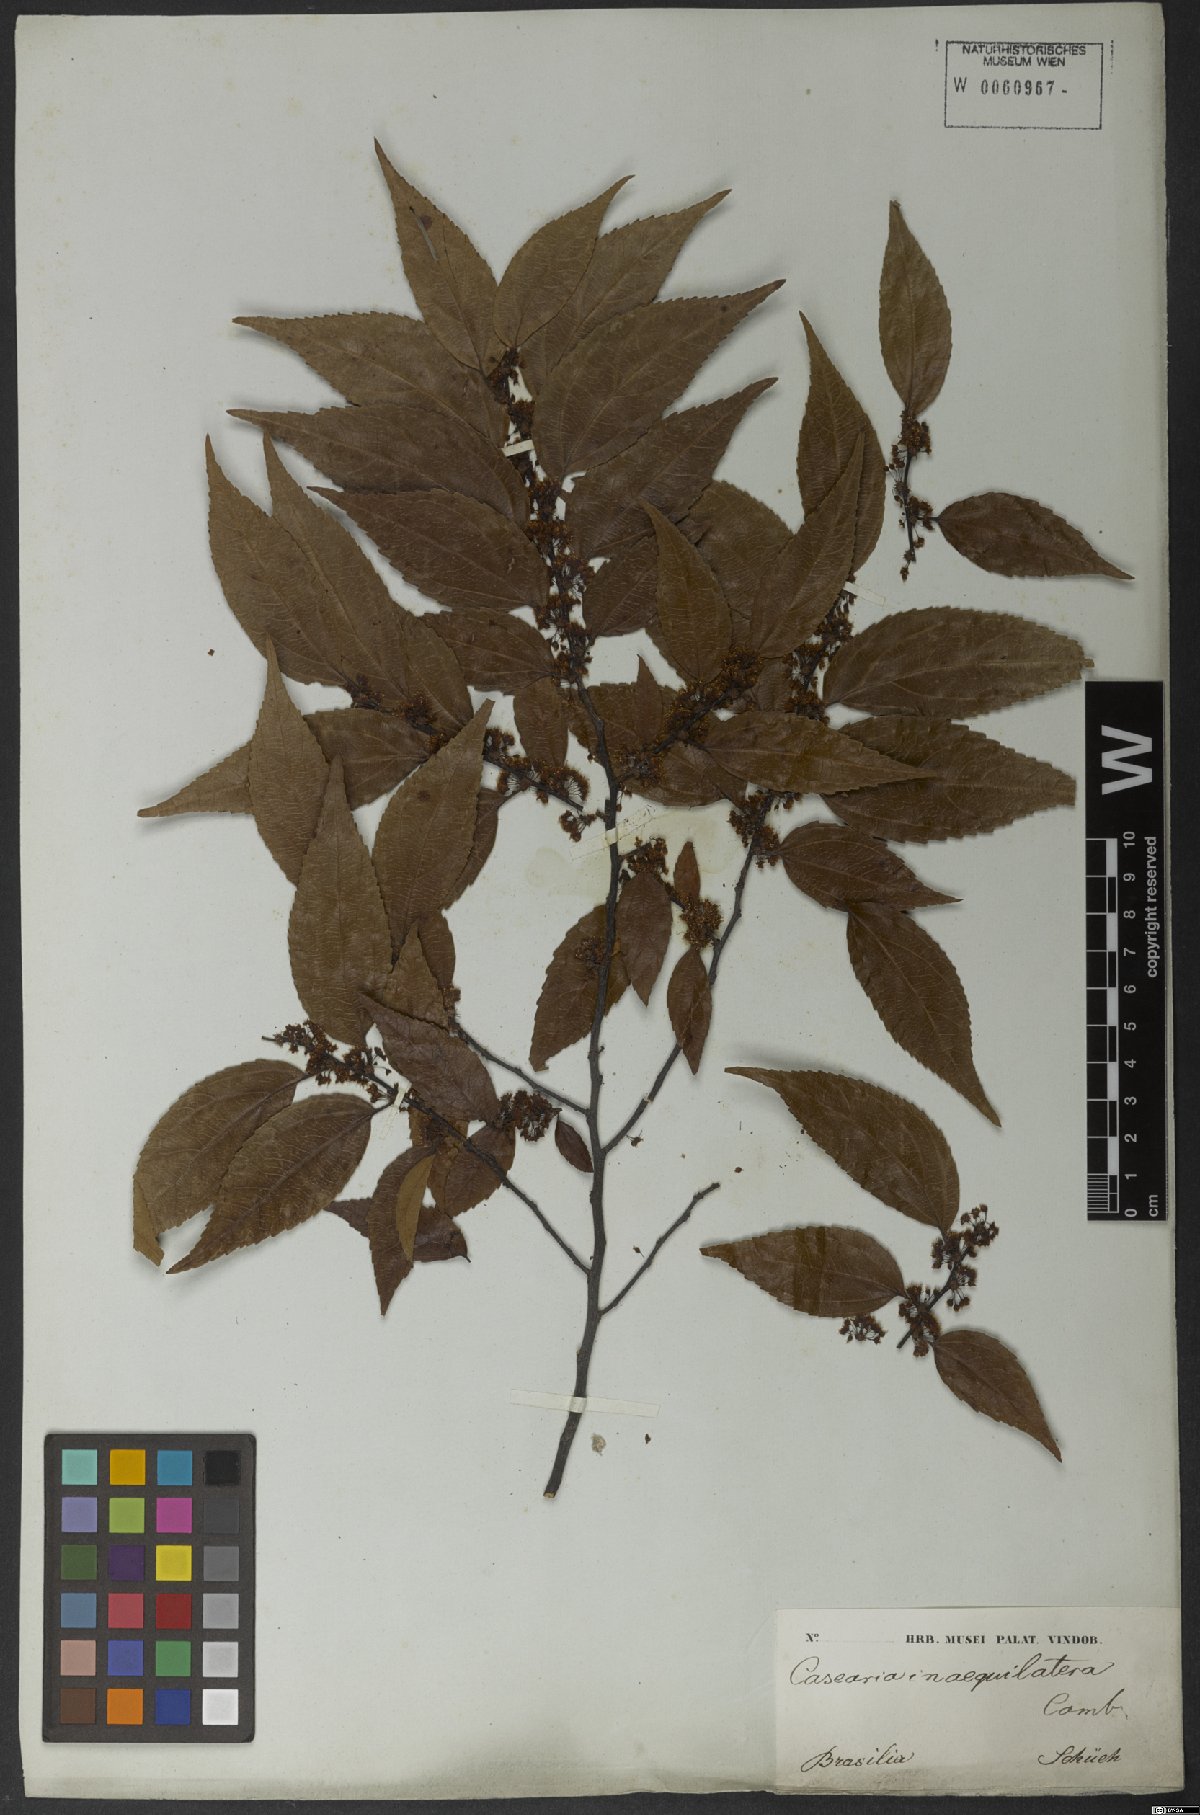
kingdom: Plantae
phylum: Tracheophyta
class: Magnoliopsida
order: Malpighiales
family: Salicaceae
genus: Casearia
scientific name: Casearia obliqua
